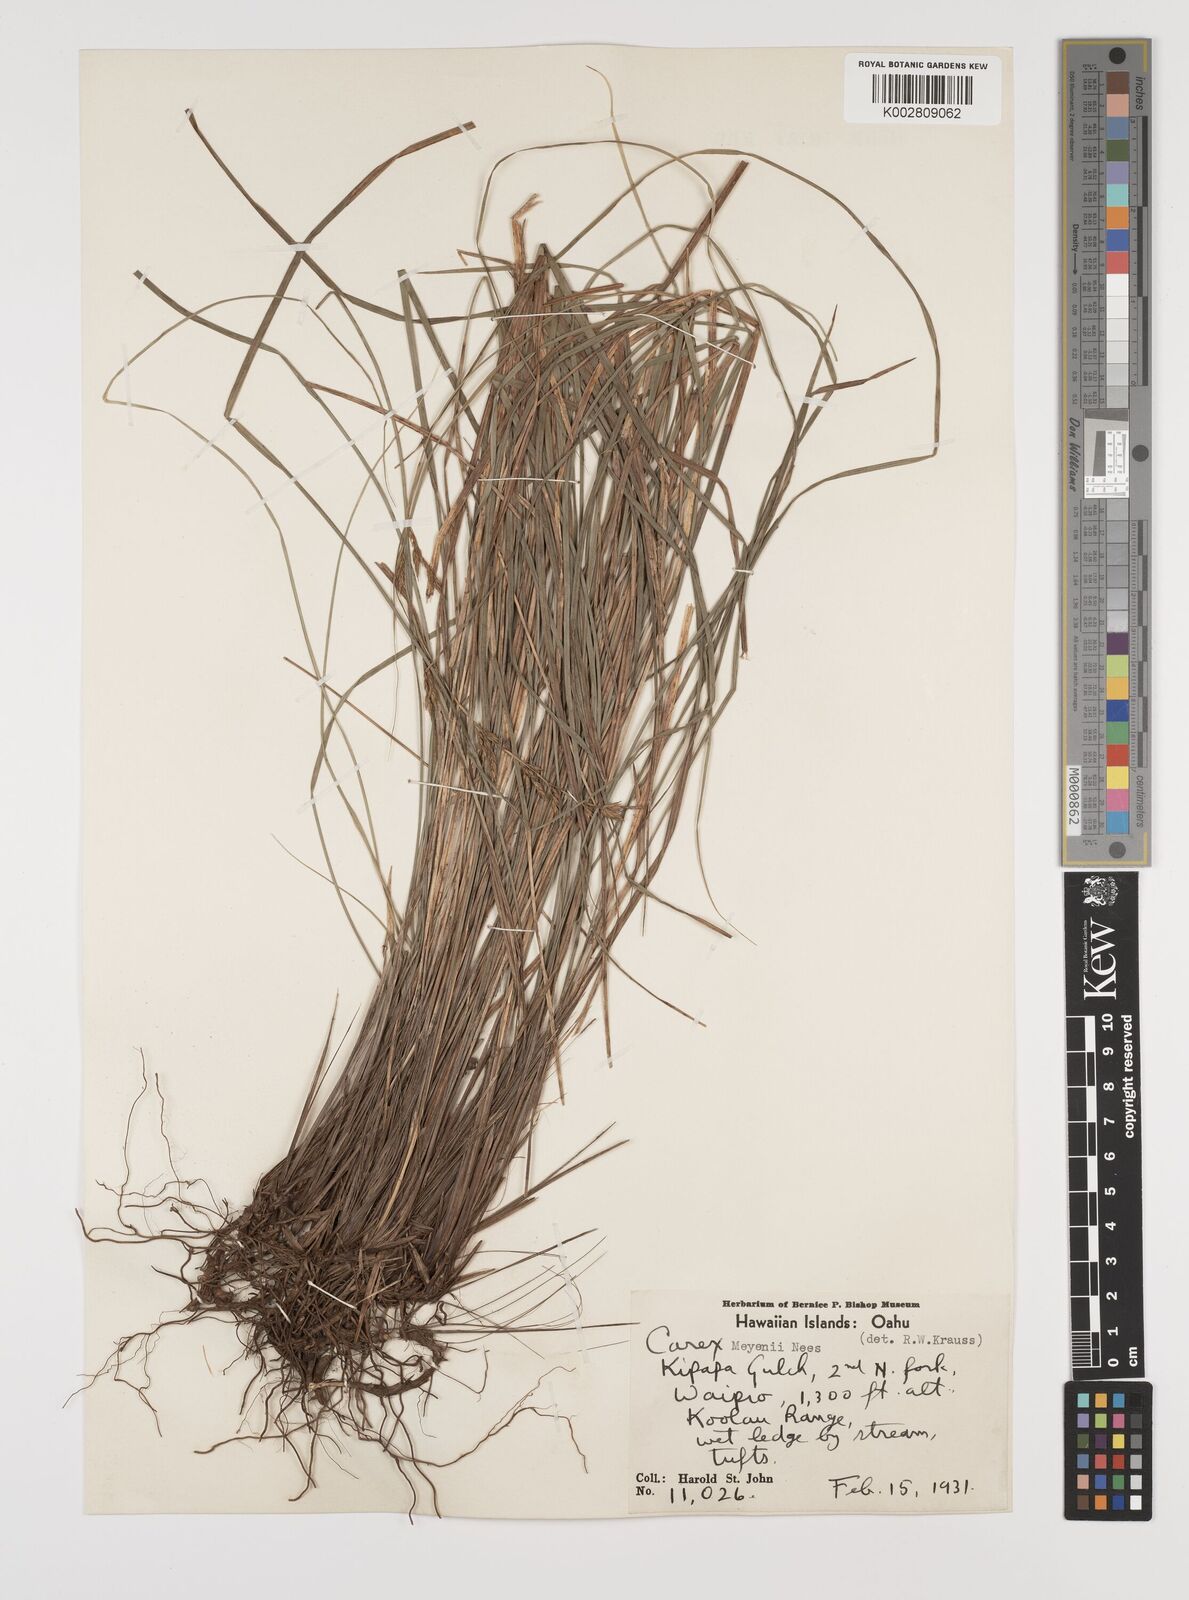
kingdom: Plantae
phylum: Tracheophyta
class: Liliopsida
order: Poales
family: Cyperaceae
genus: Carex
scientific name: Carex brunnea
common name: Greater brown sedge
